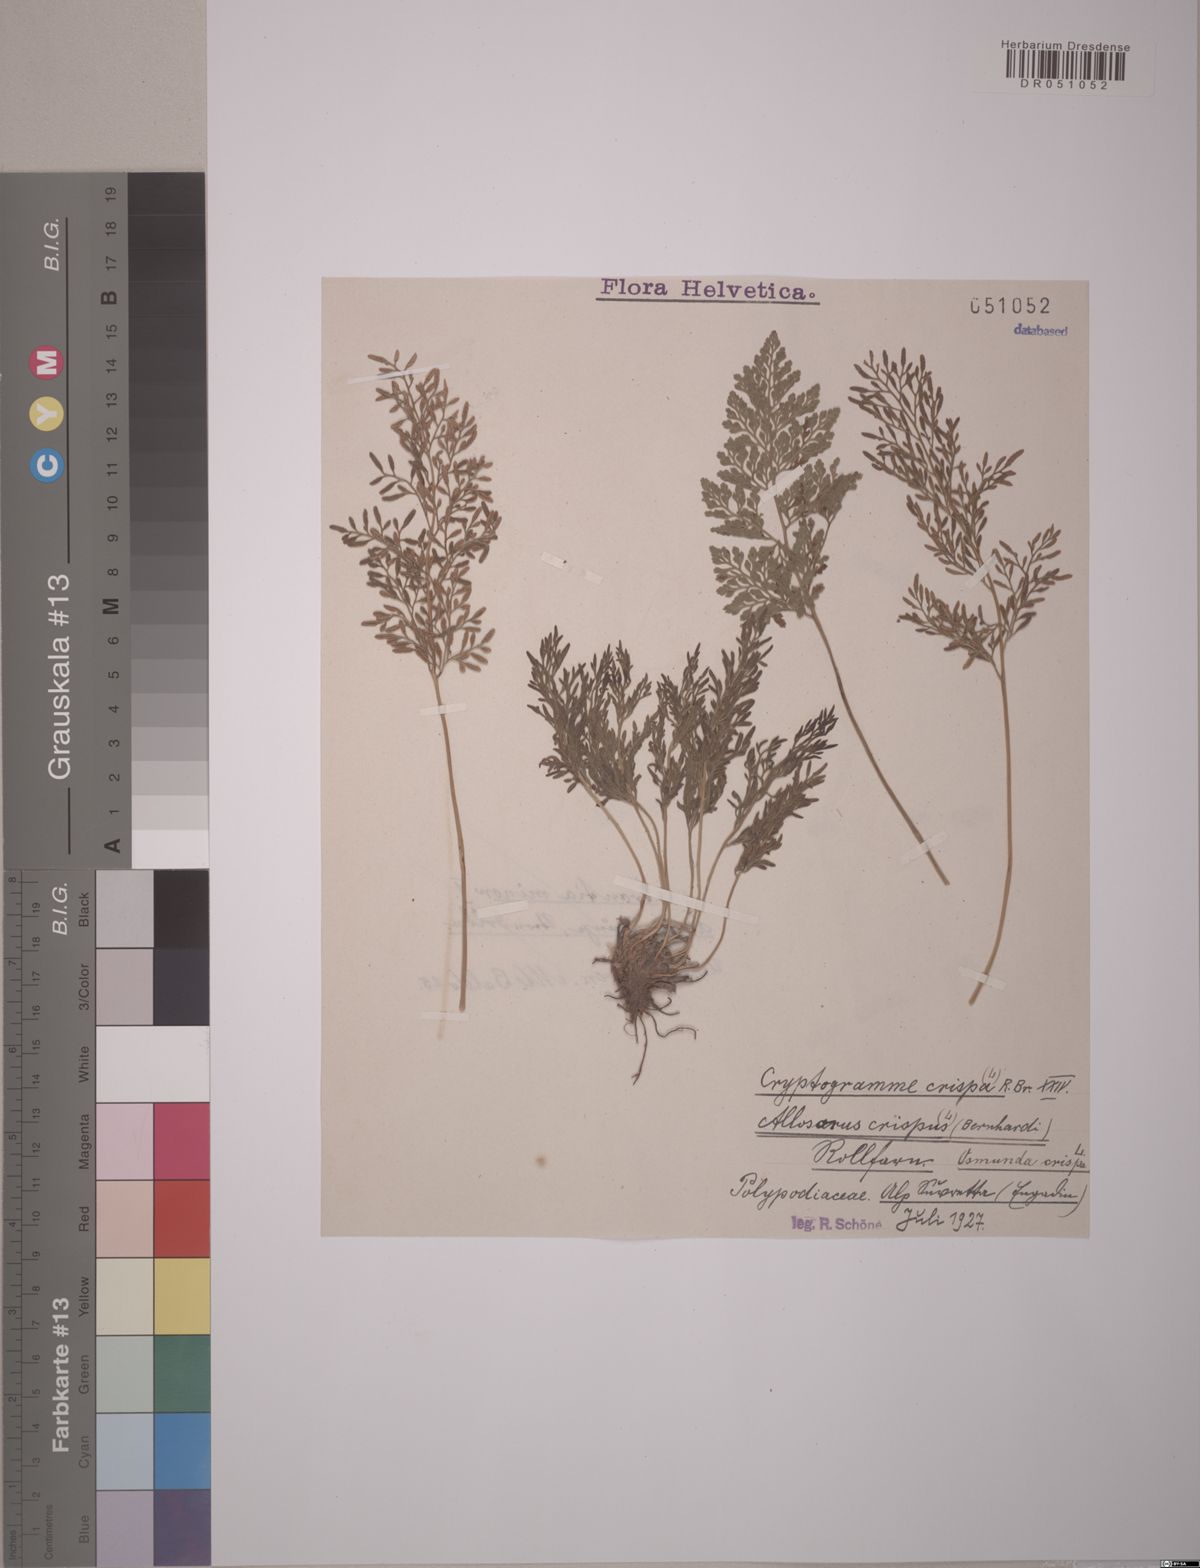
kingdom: Plantae
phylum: Tracheophyta
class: Polypodiopsida
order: Polypodiales
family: Pteridaceae
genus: Cryptogramma
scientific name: Cryptogramma crispa
